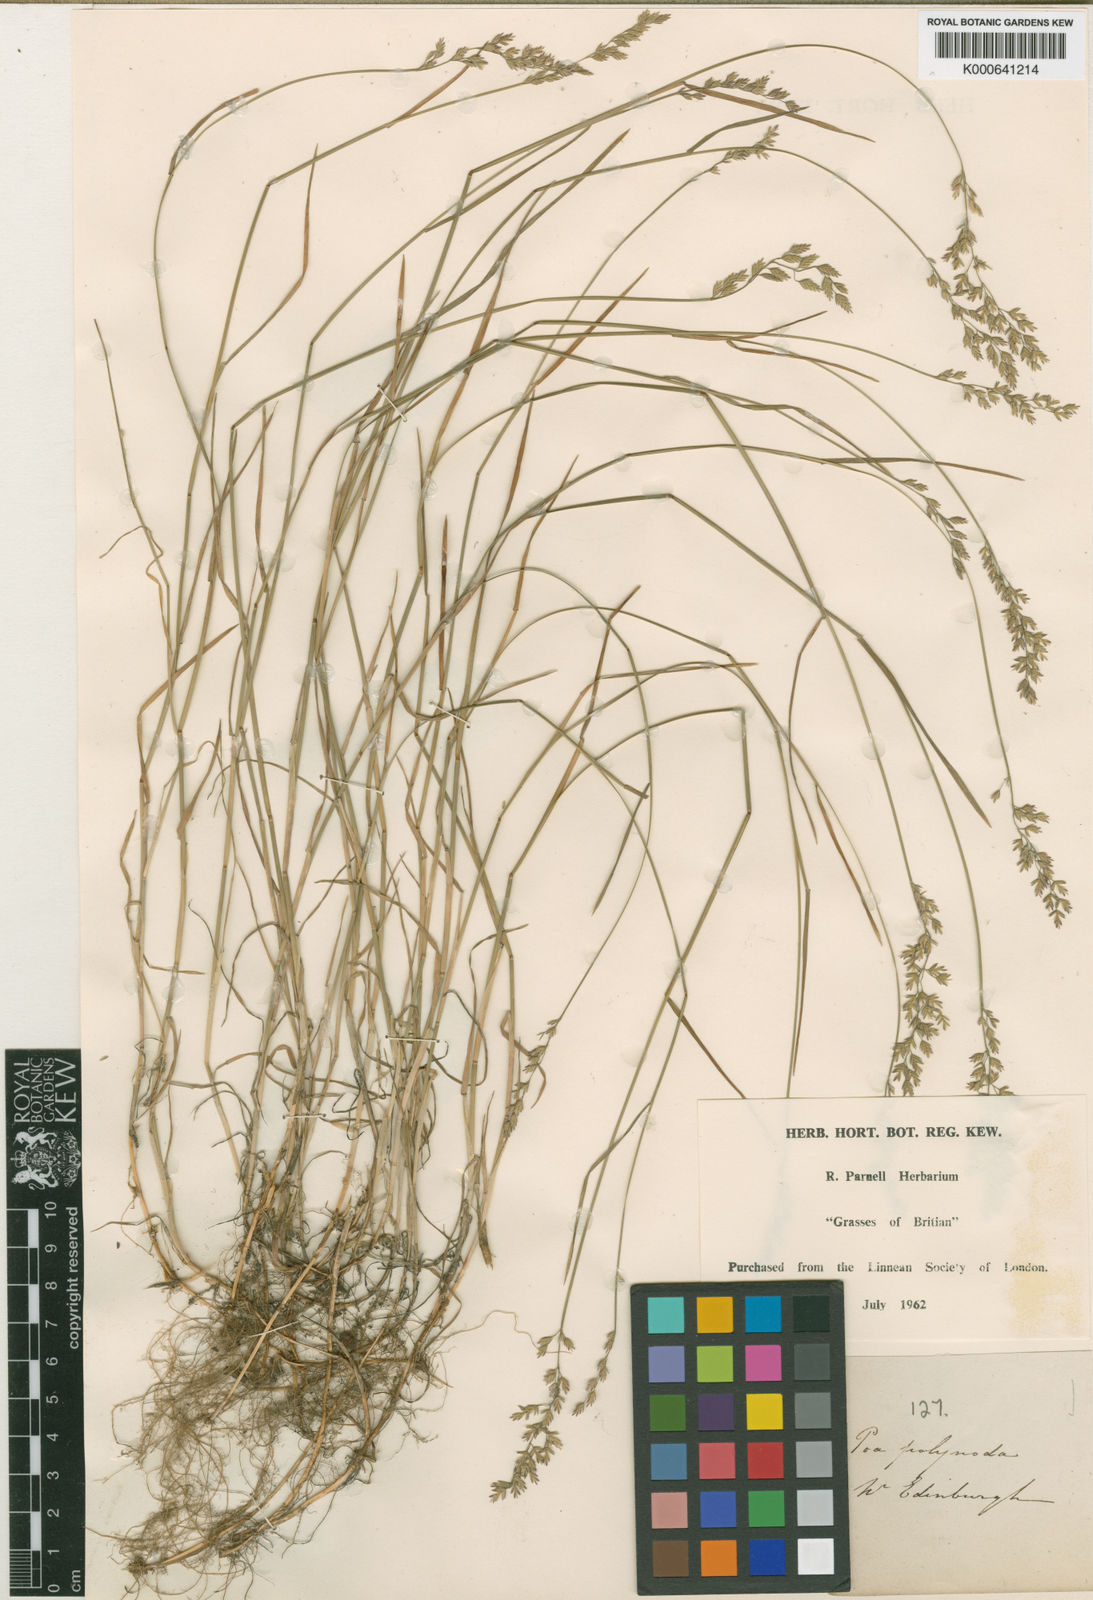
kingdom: Plantae
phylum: Tracheophyta
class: Liliopsida
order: Poales
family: Poaceae
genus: Poa
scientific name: Poa compressa
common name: Canada bluegrass
